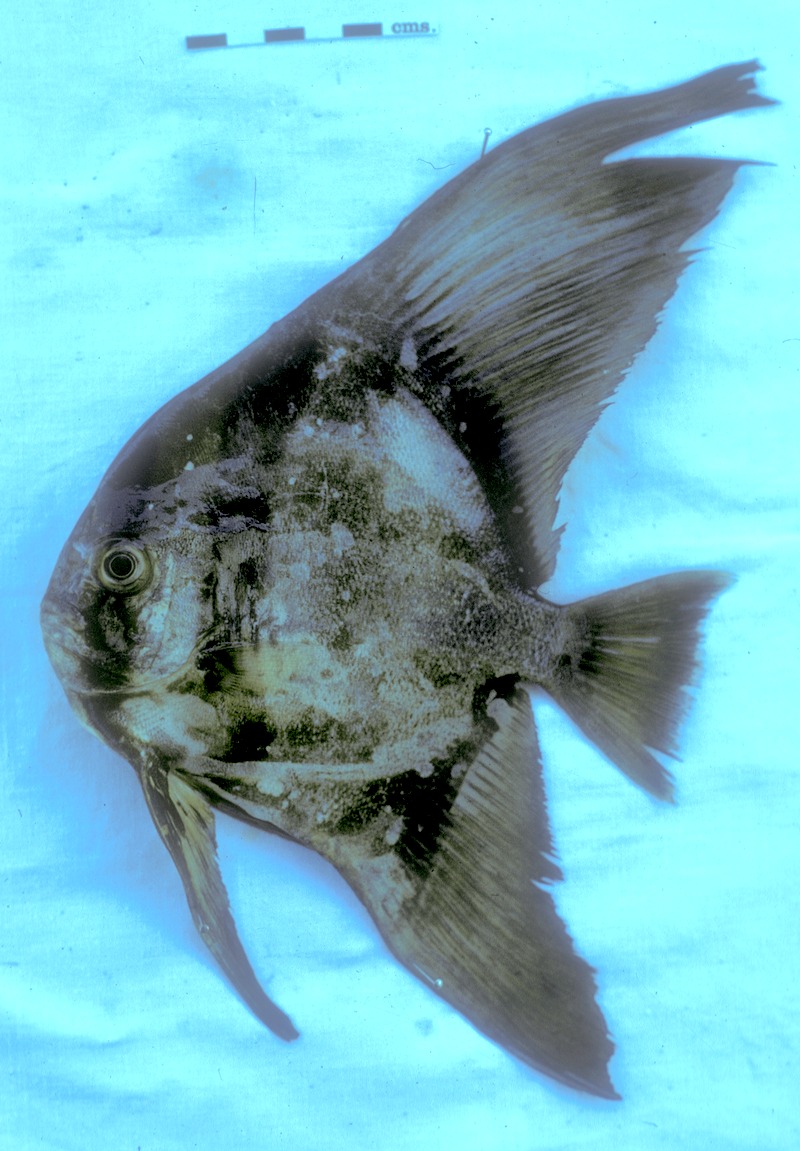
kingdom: Animalia
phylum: Chordata
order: Perciformes
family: Ephippidae
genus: Platax
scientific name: Platax teira
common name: Longfin baitfish
